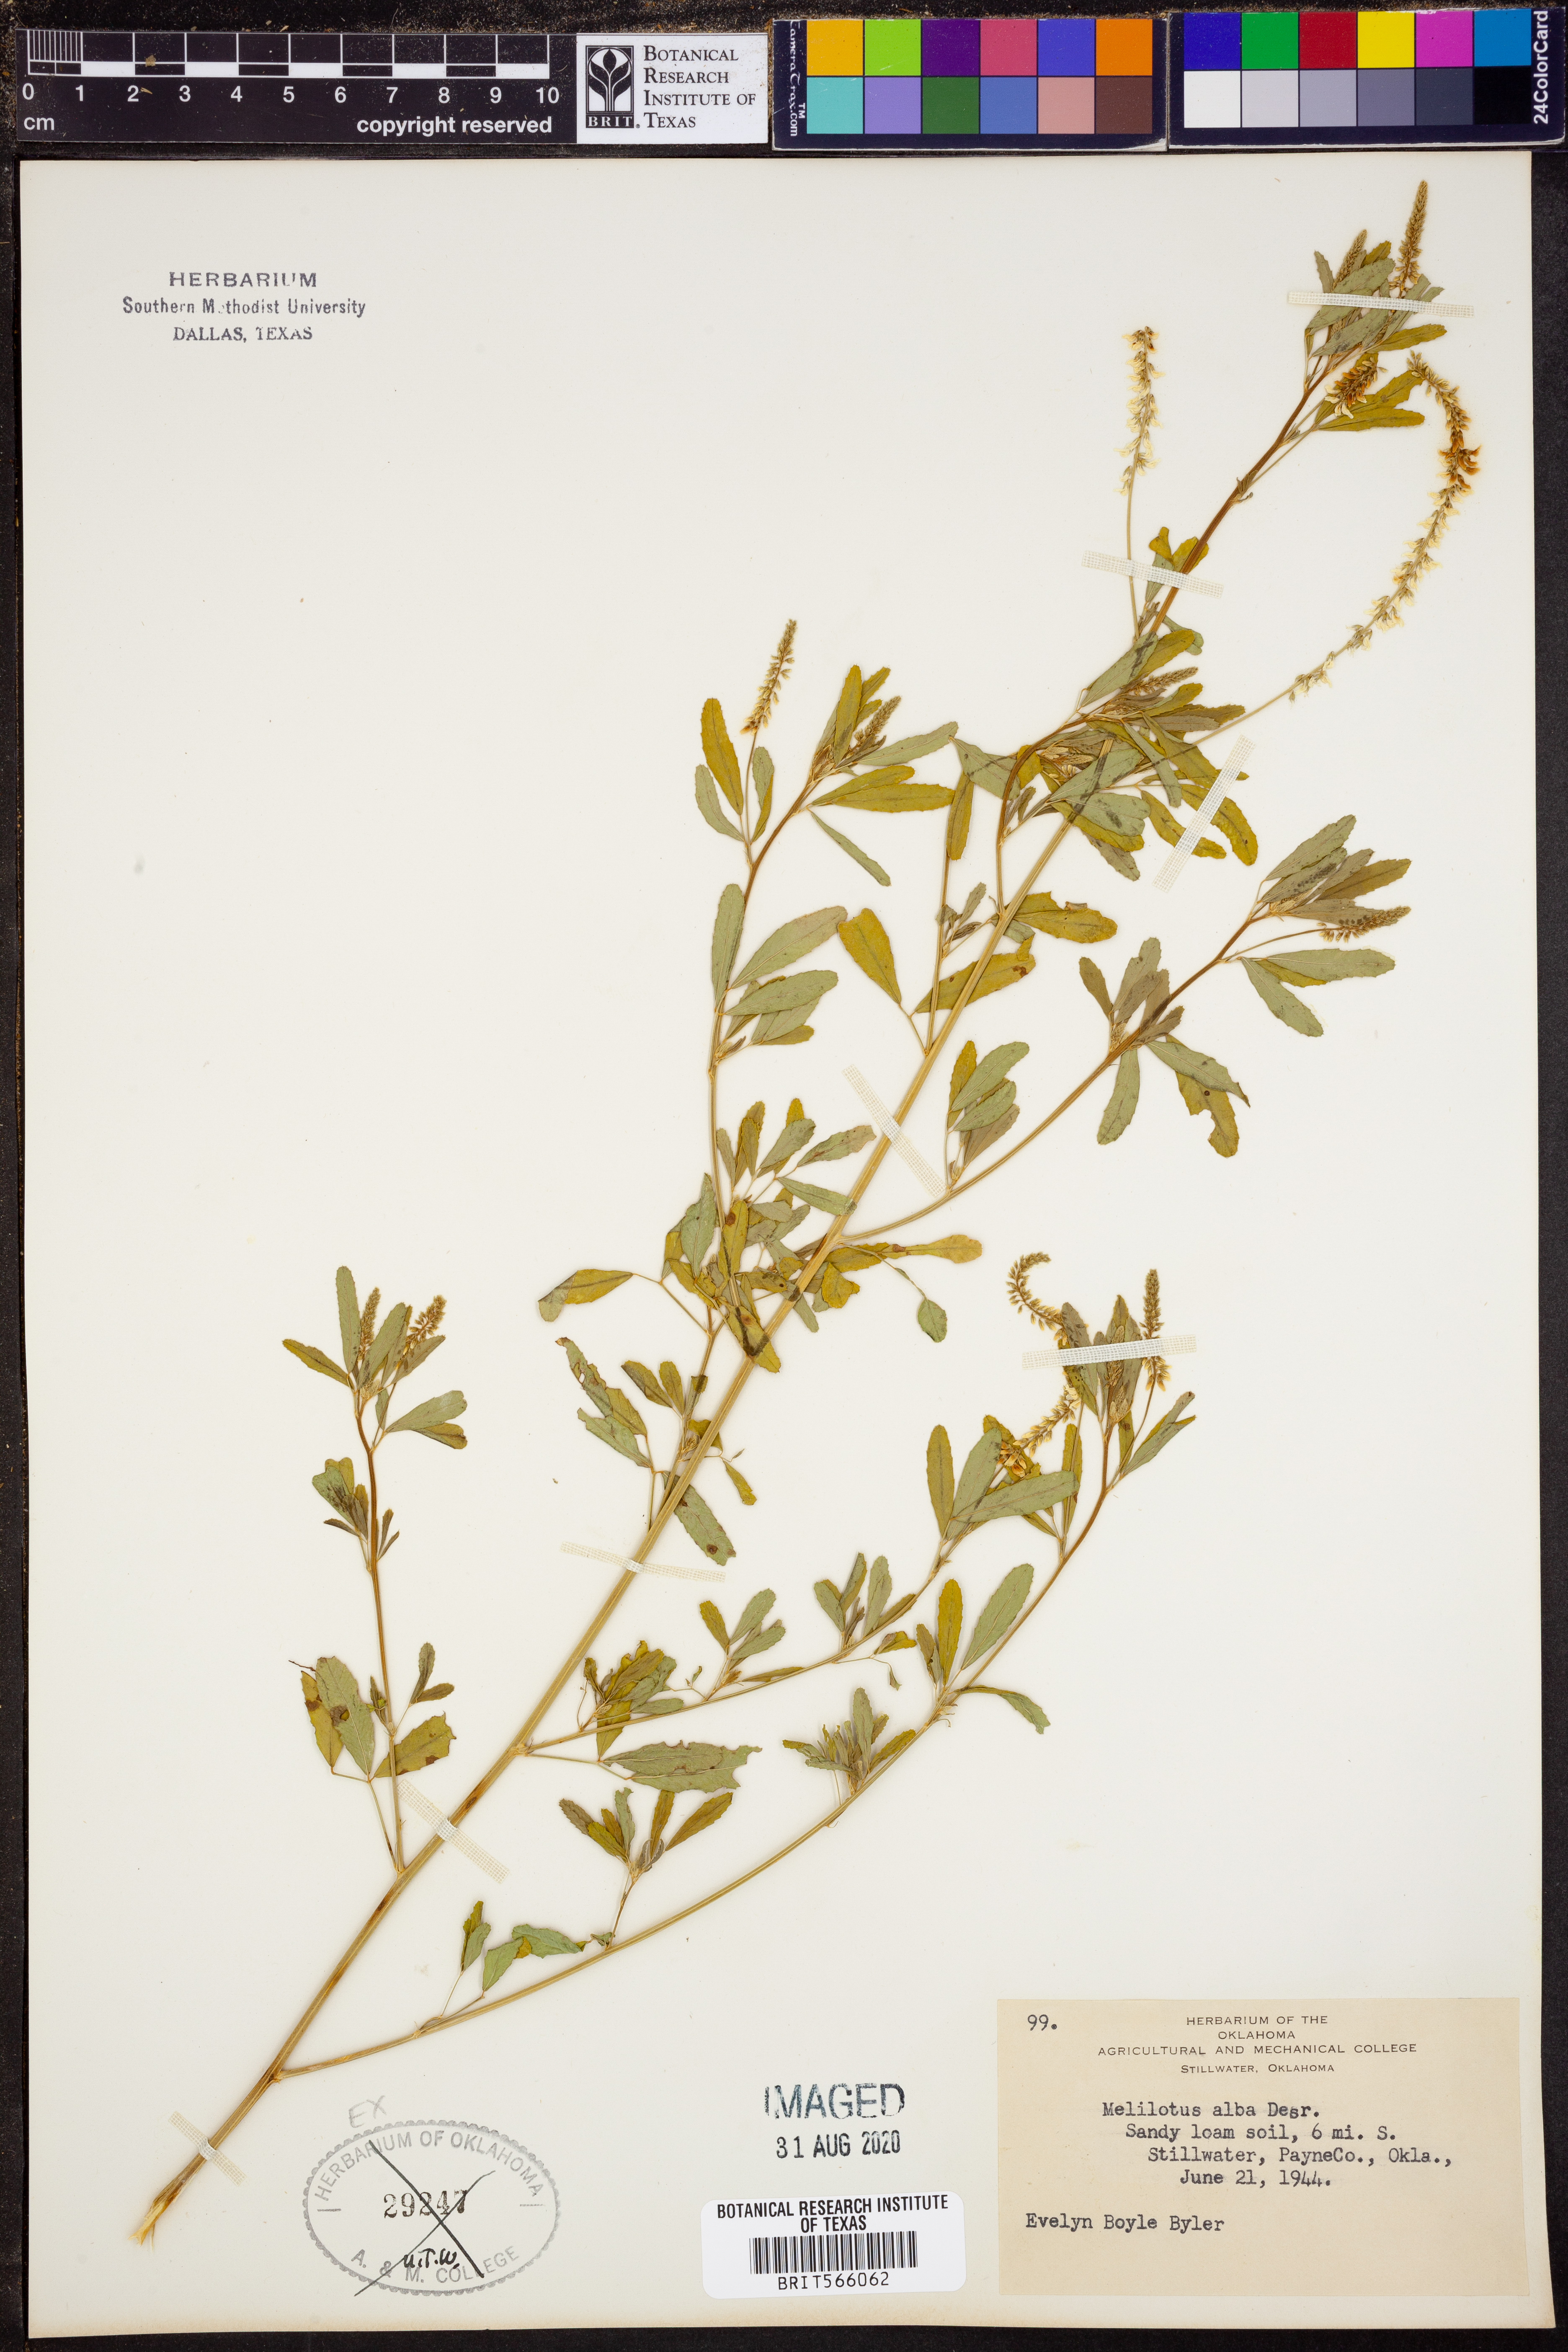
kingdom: Plantae
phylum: Tracheophyta
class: Magnoliopsida
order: Fabales
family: Fabaceae
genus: Melilotus
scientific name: Melilotus albus
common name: White melilot
